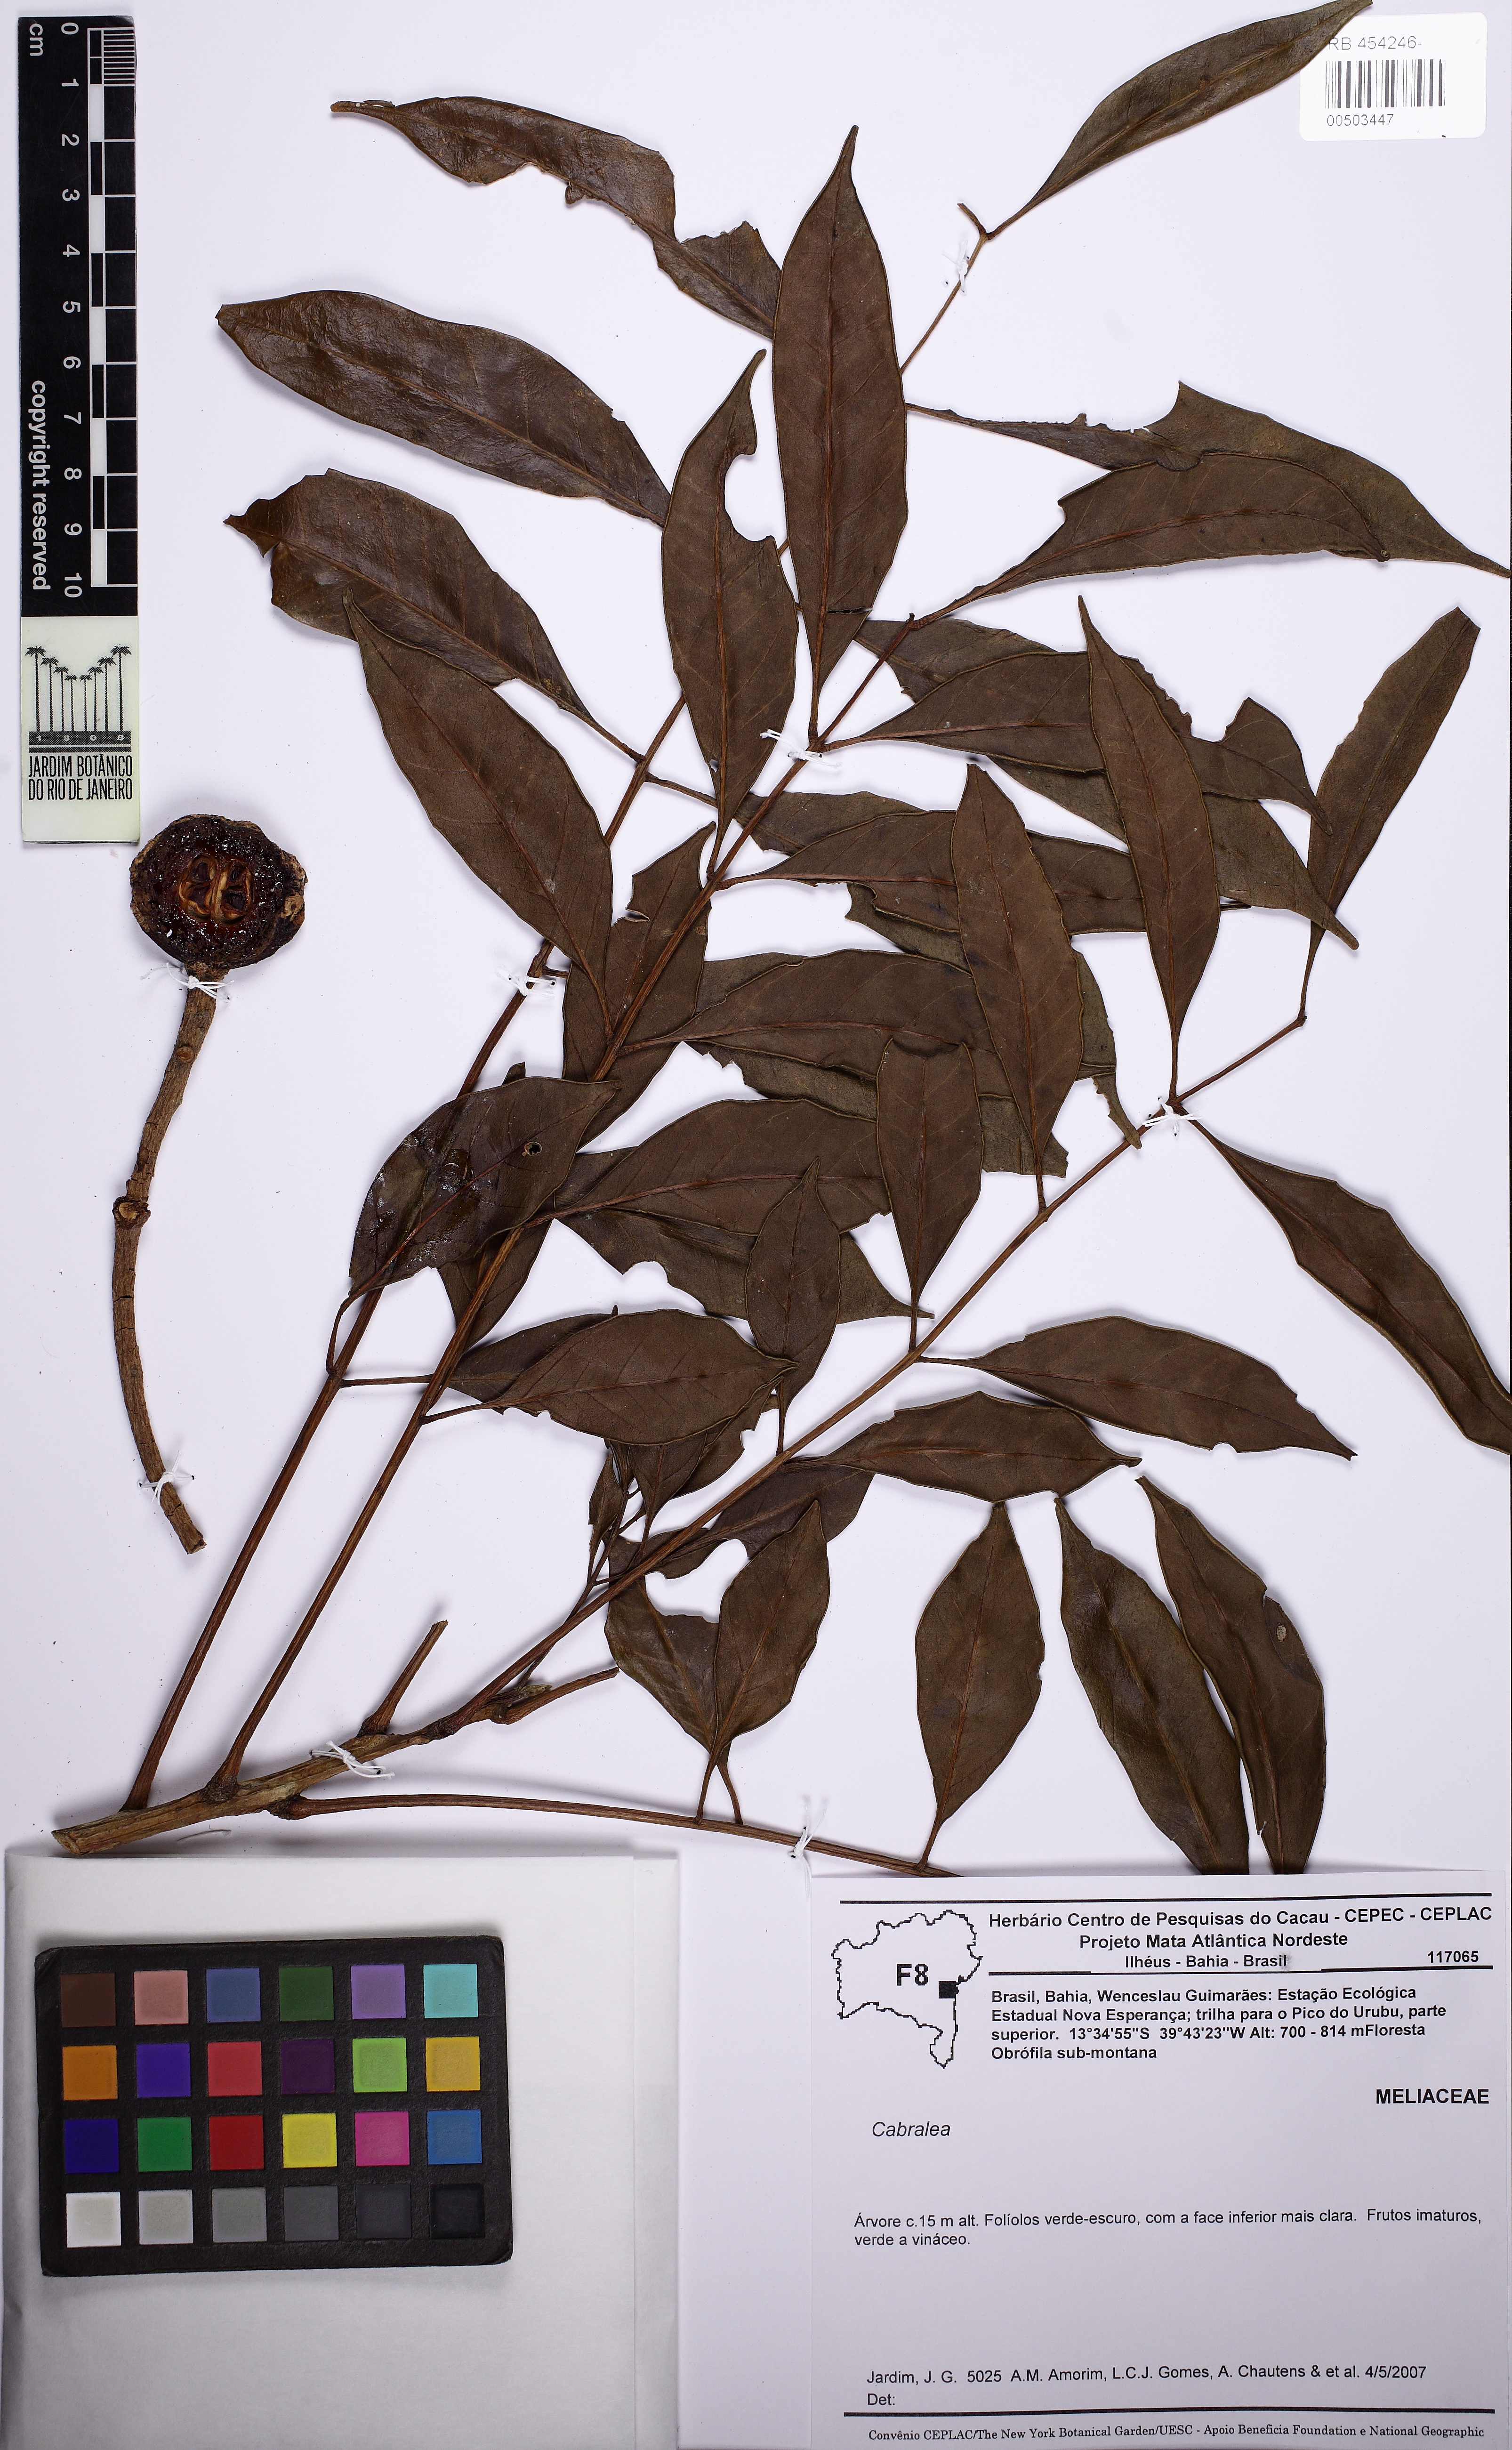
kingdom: Plantae
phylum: Tracheophyta
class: Magnoliopsida
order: Sapindales
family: Meliaceae
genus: Cabralea
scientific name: Cabralea
